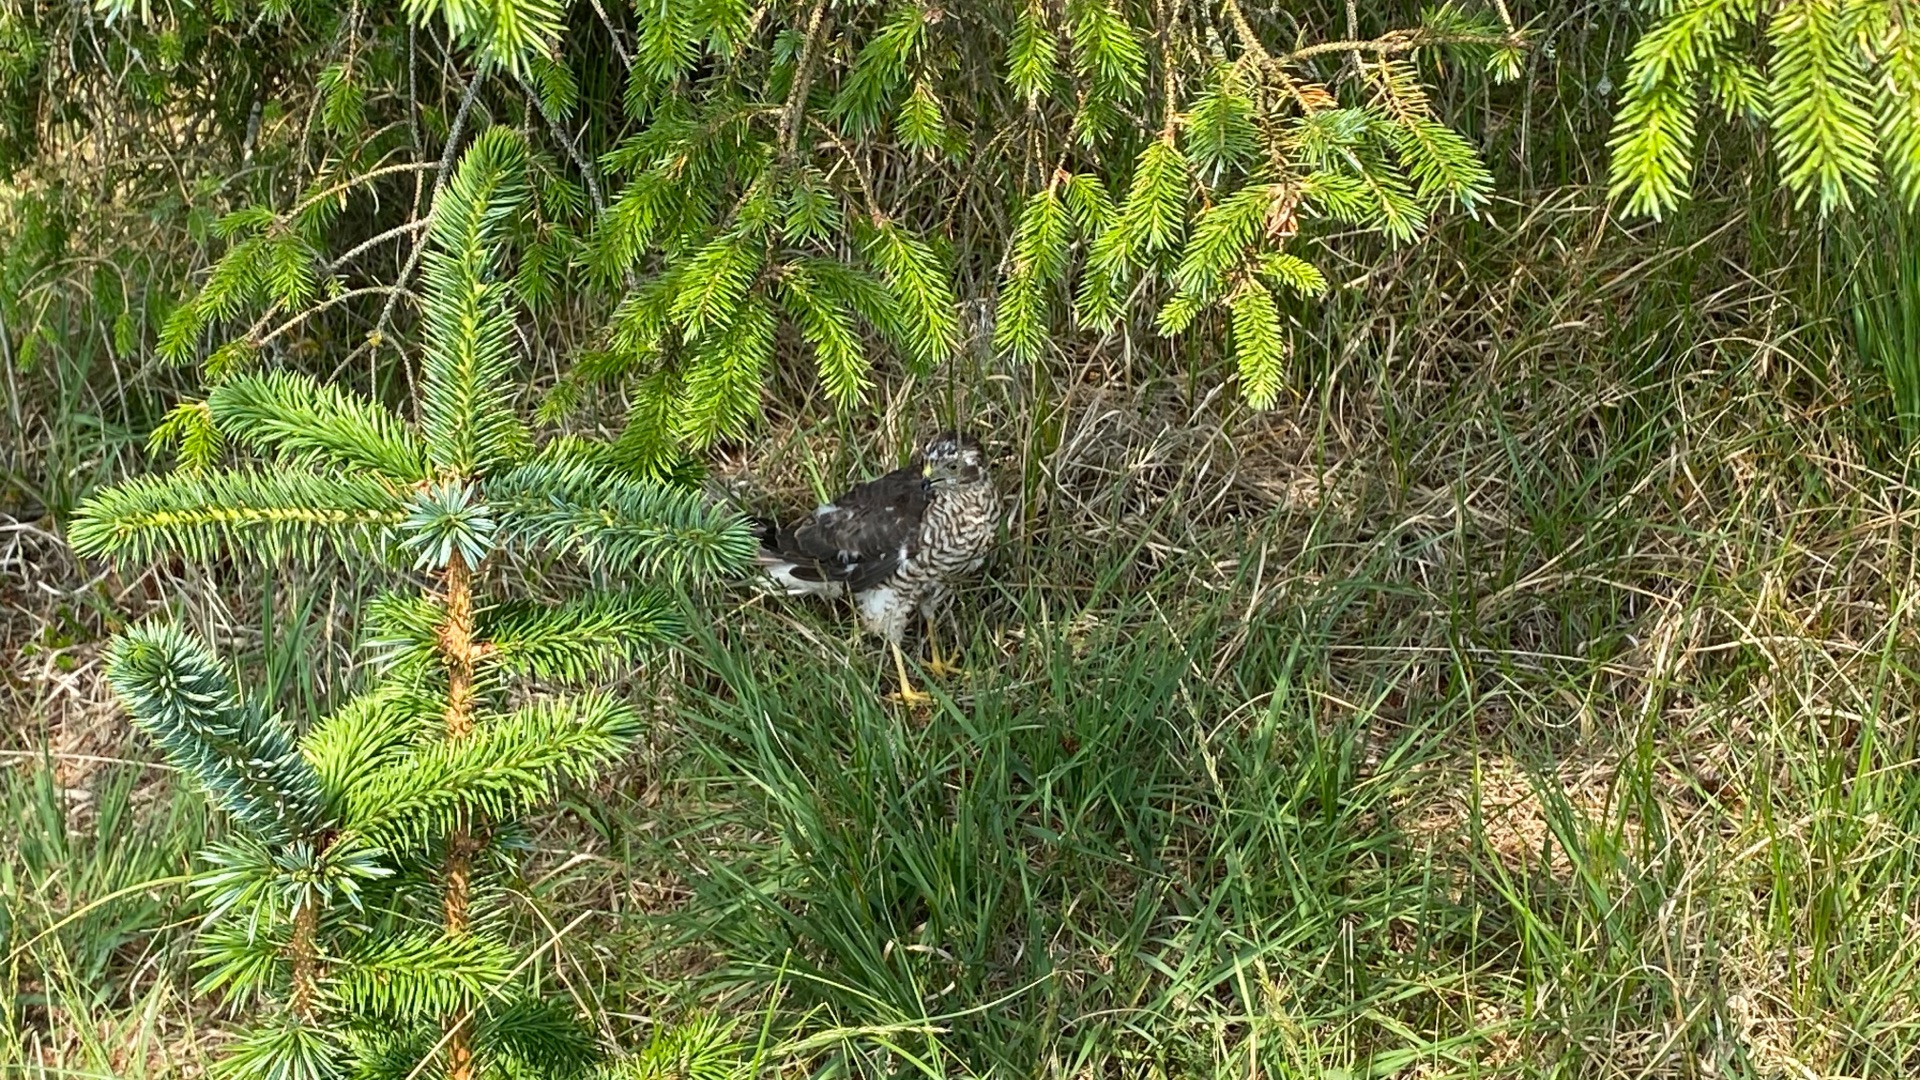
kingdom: Animalia
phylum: Chordata
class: Aves
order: Accipitriformes
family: Accipitridae
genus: Accipiter
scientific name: Accipiter nisus
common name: Spurvehøg
